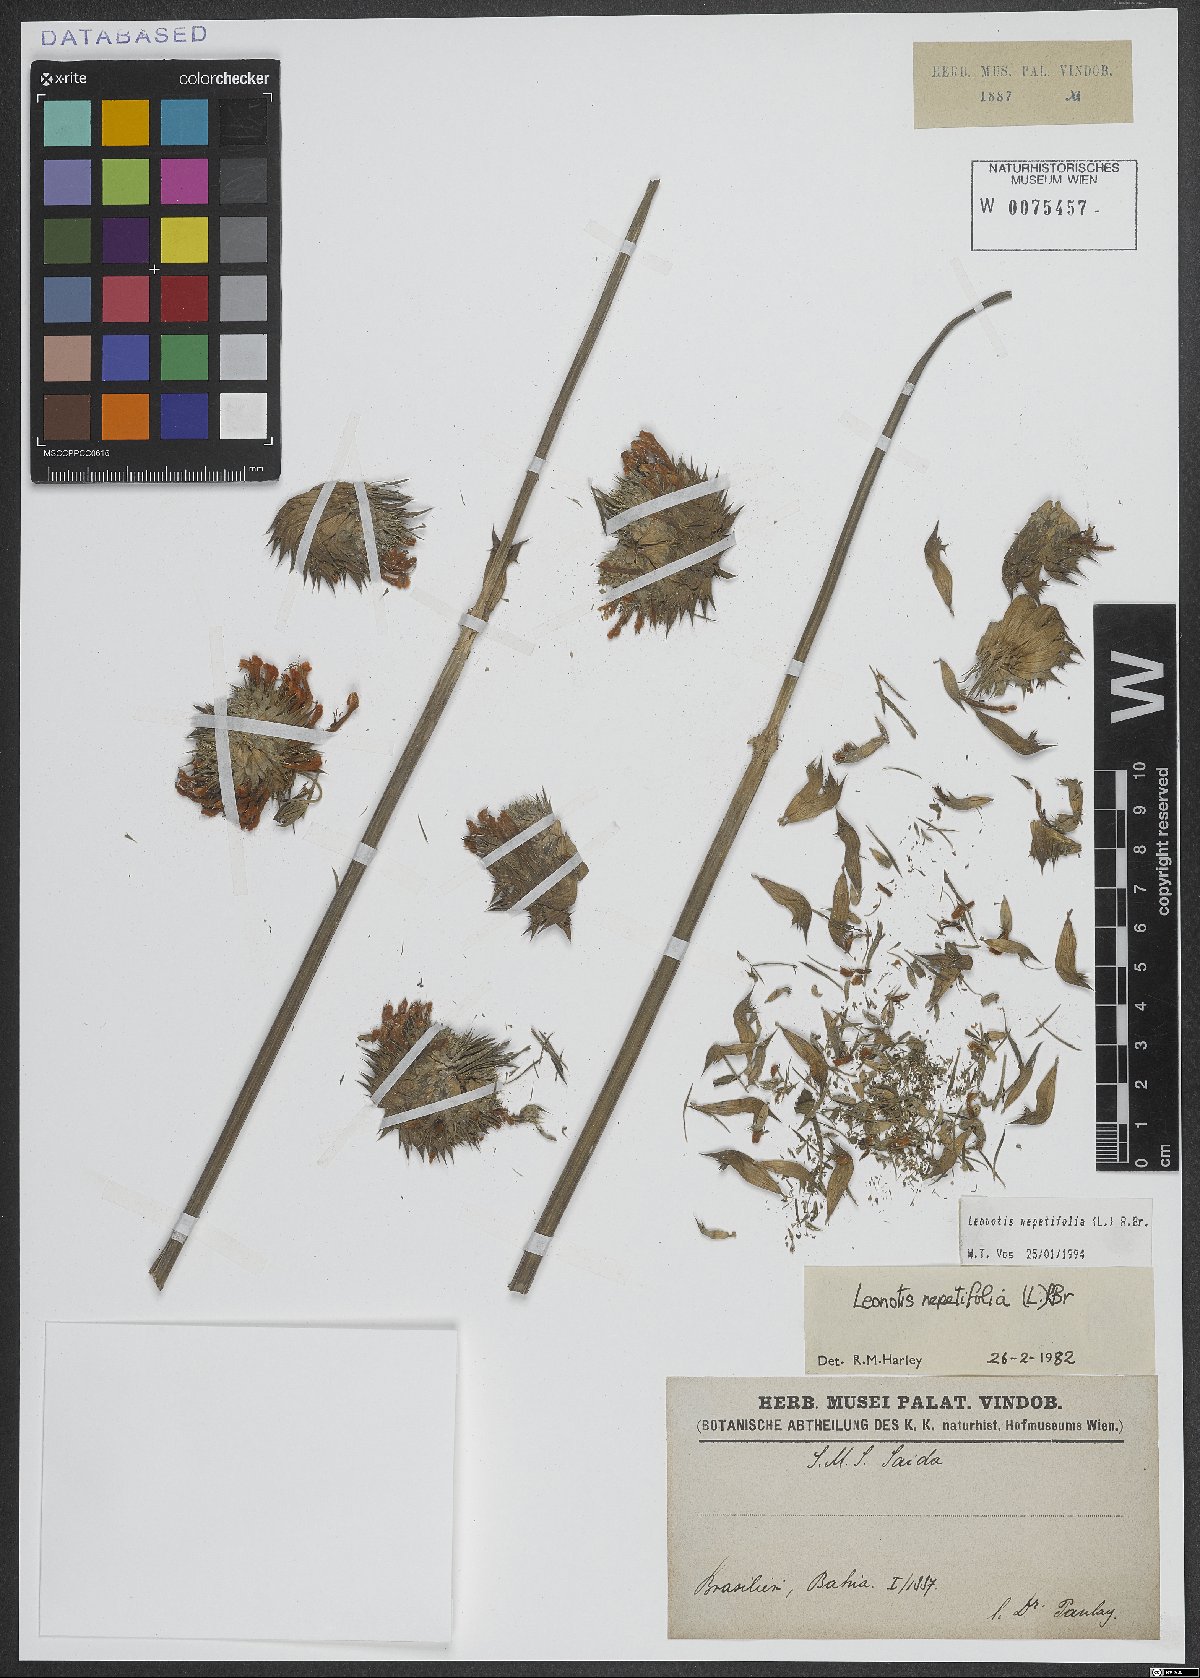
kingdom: Plantae
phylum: Tracheophyta
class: Magnoliopsida
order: Lamiales
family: Lamiaceae
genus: Leonotis
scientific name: Leonotis nepetifolia
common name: Christmas candlestick
